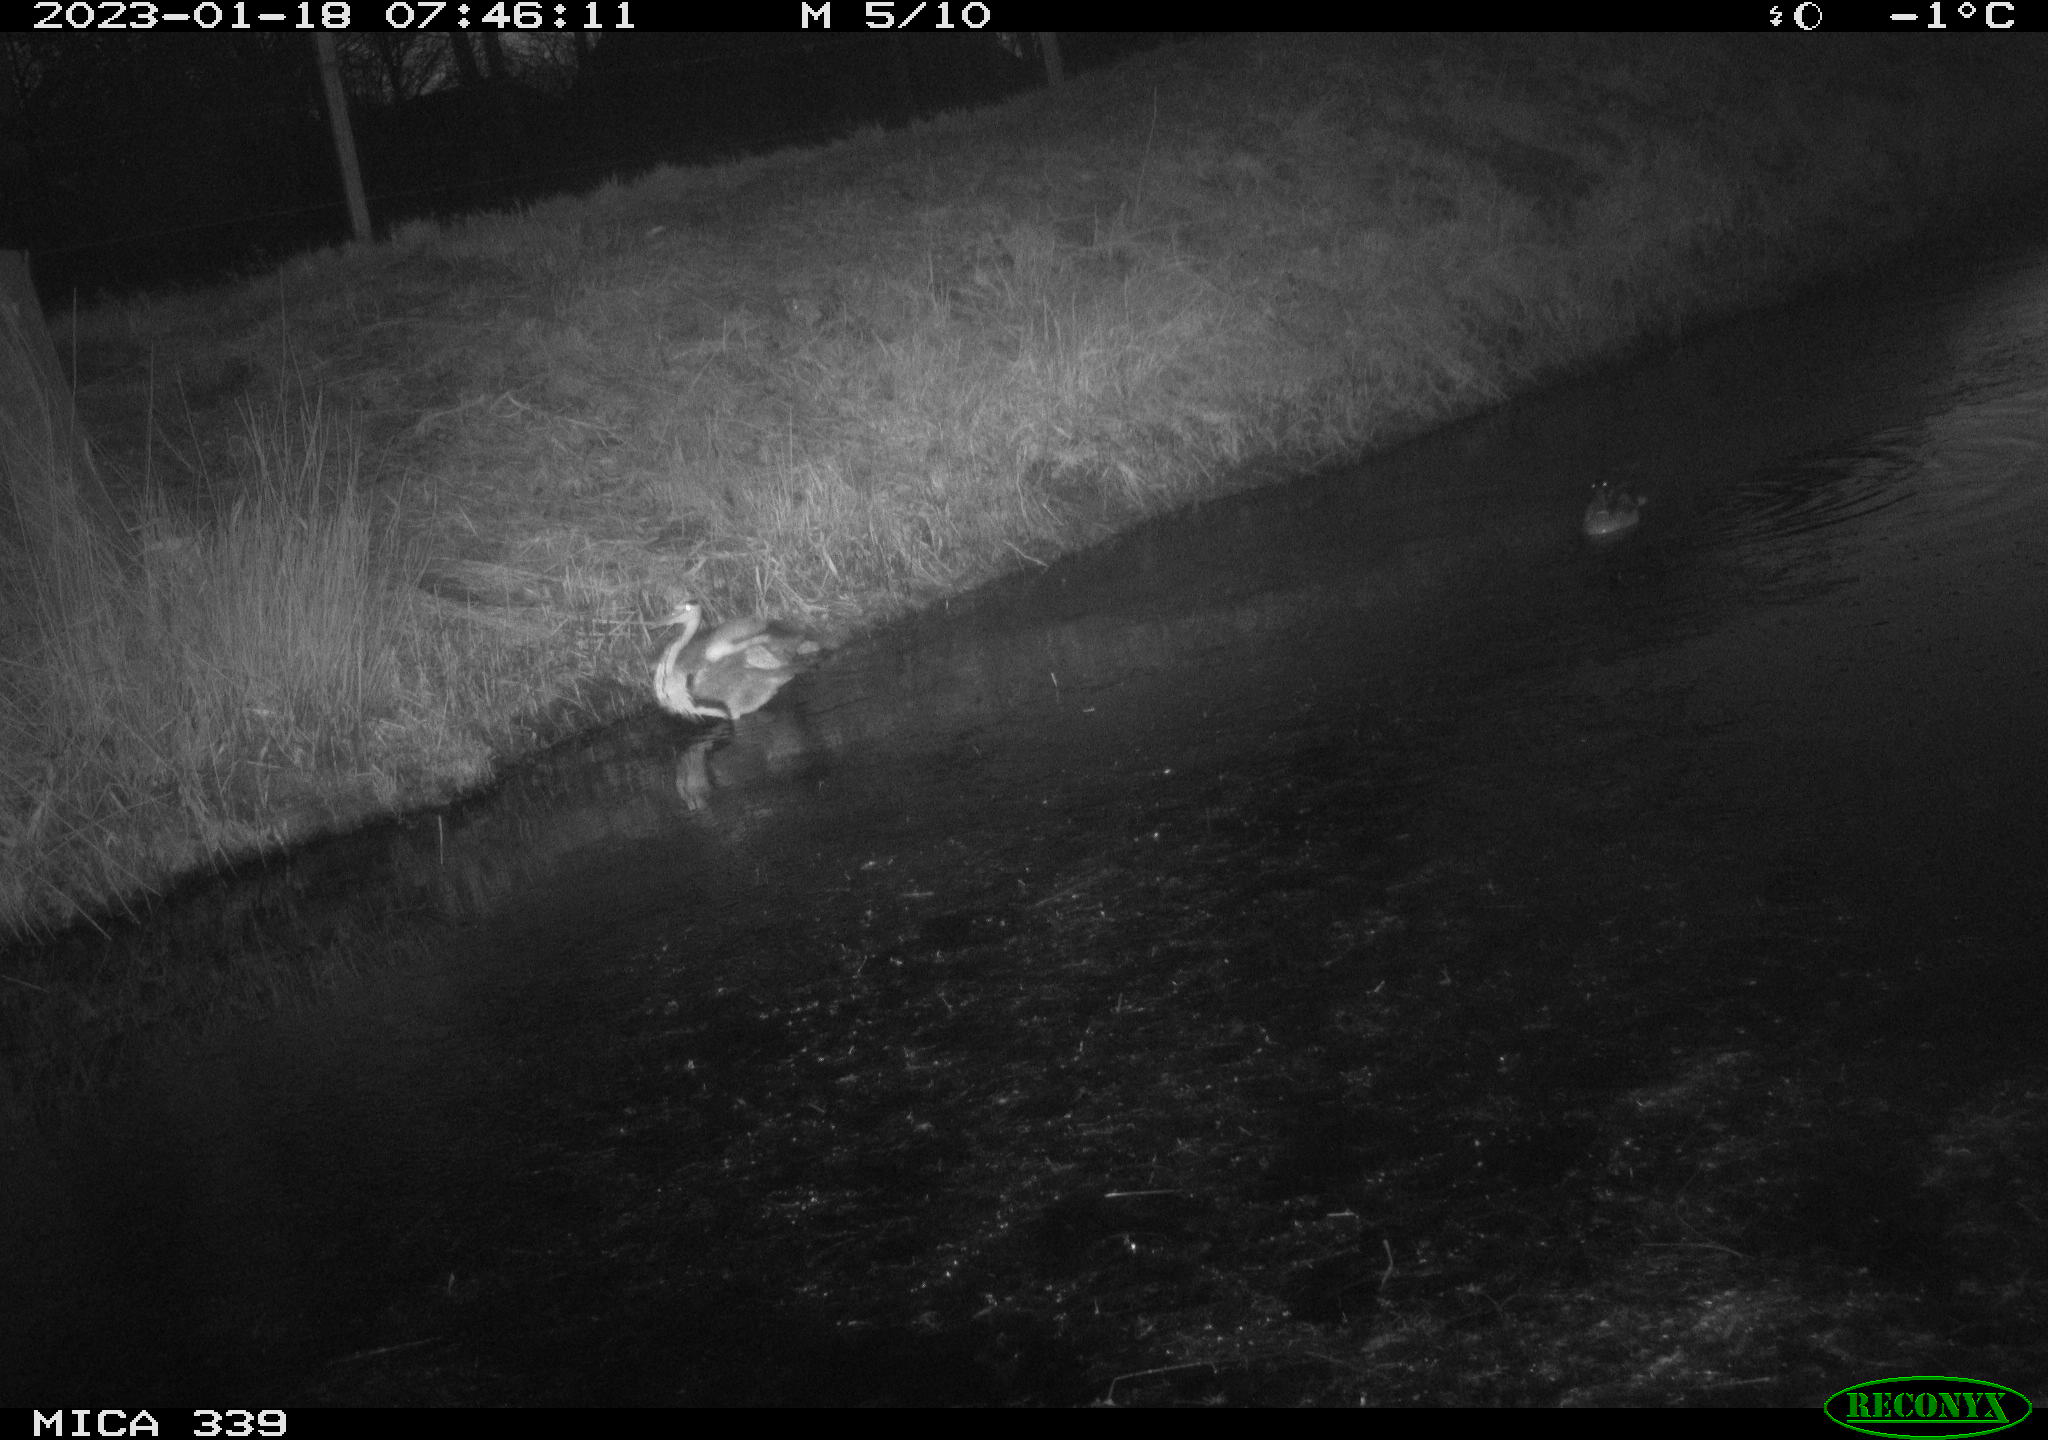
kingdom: Animalia
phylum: Chordata
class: Aves
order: Pelecaniformes
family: Ardeidae
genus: Ardea
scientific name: Ardea cinerea
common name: Grey heron
